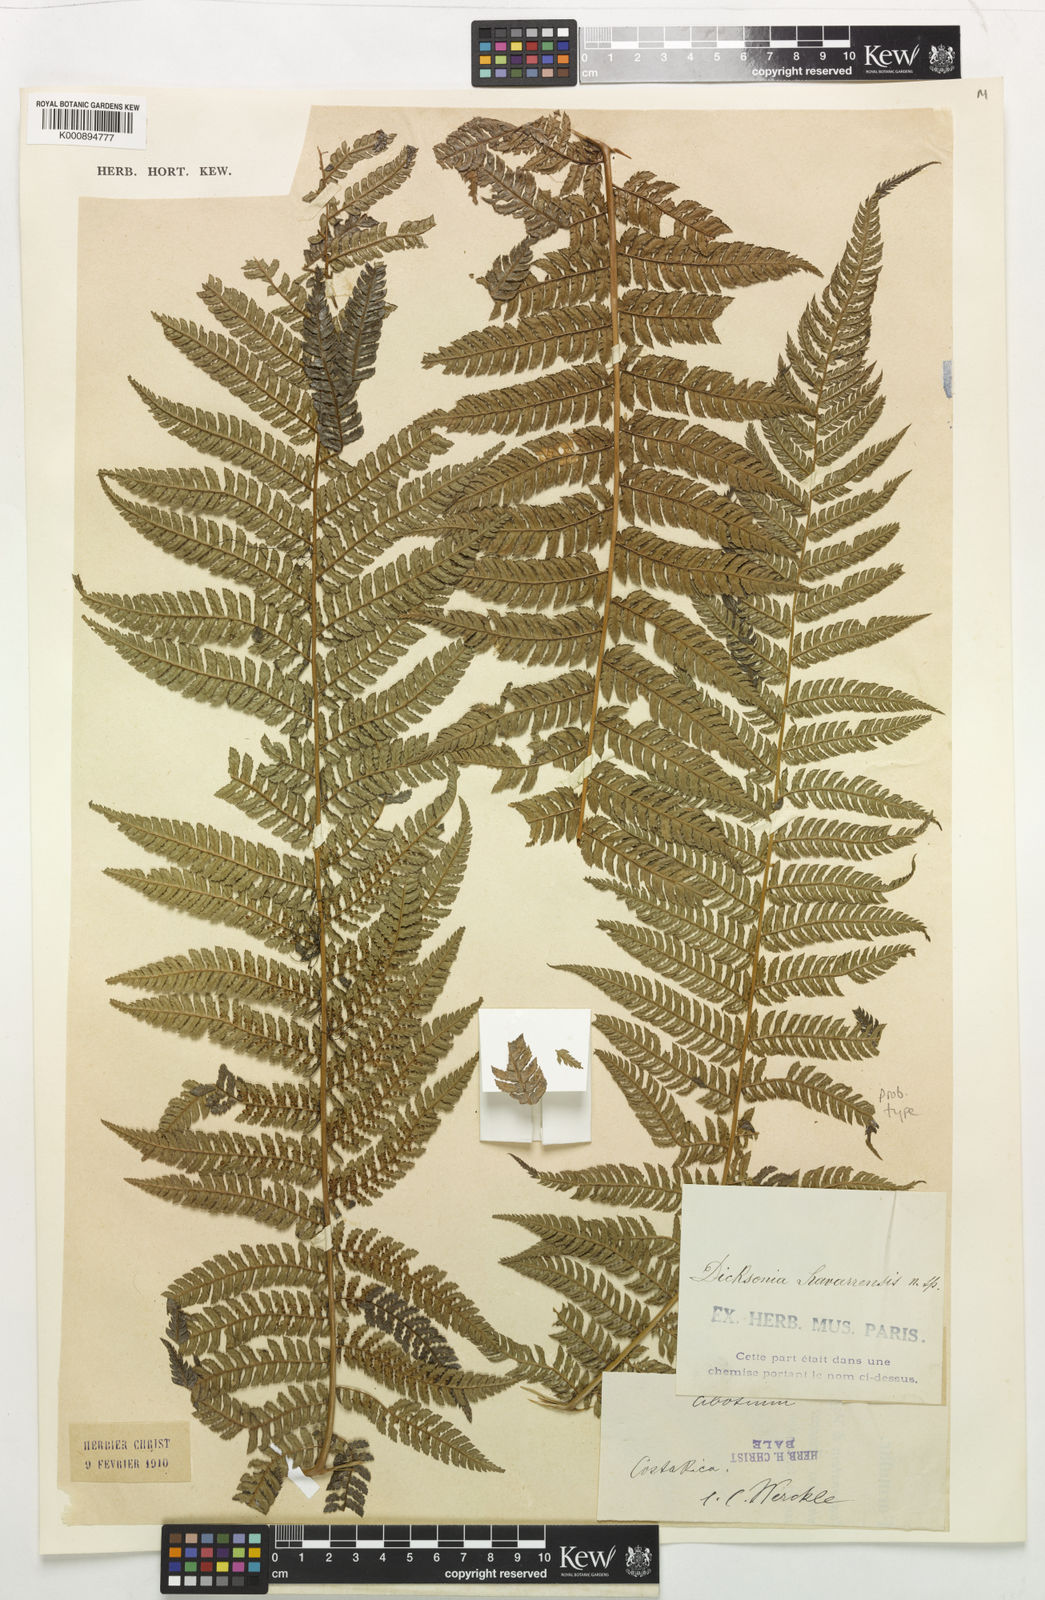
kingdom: Plantae
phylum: Tracheophyta
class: Polypodiopsida
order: Cyatheales
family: Dicksoniaceae
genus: Dicksonia
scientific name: Dicksonia sellowiana
